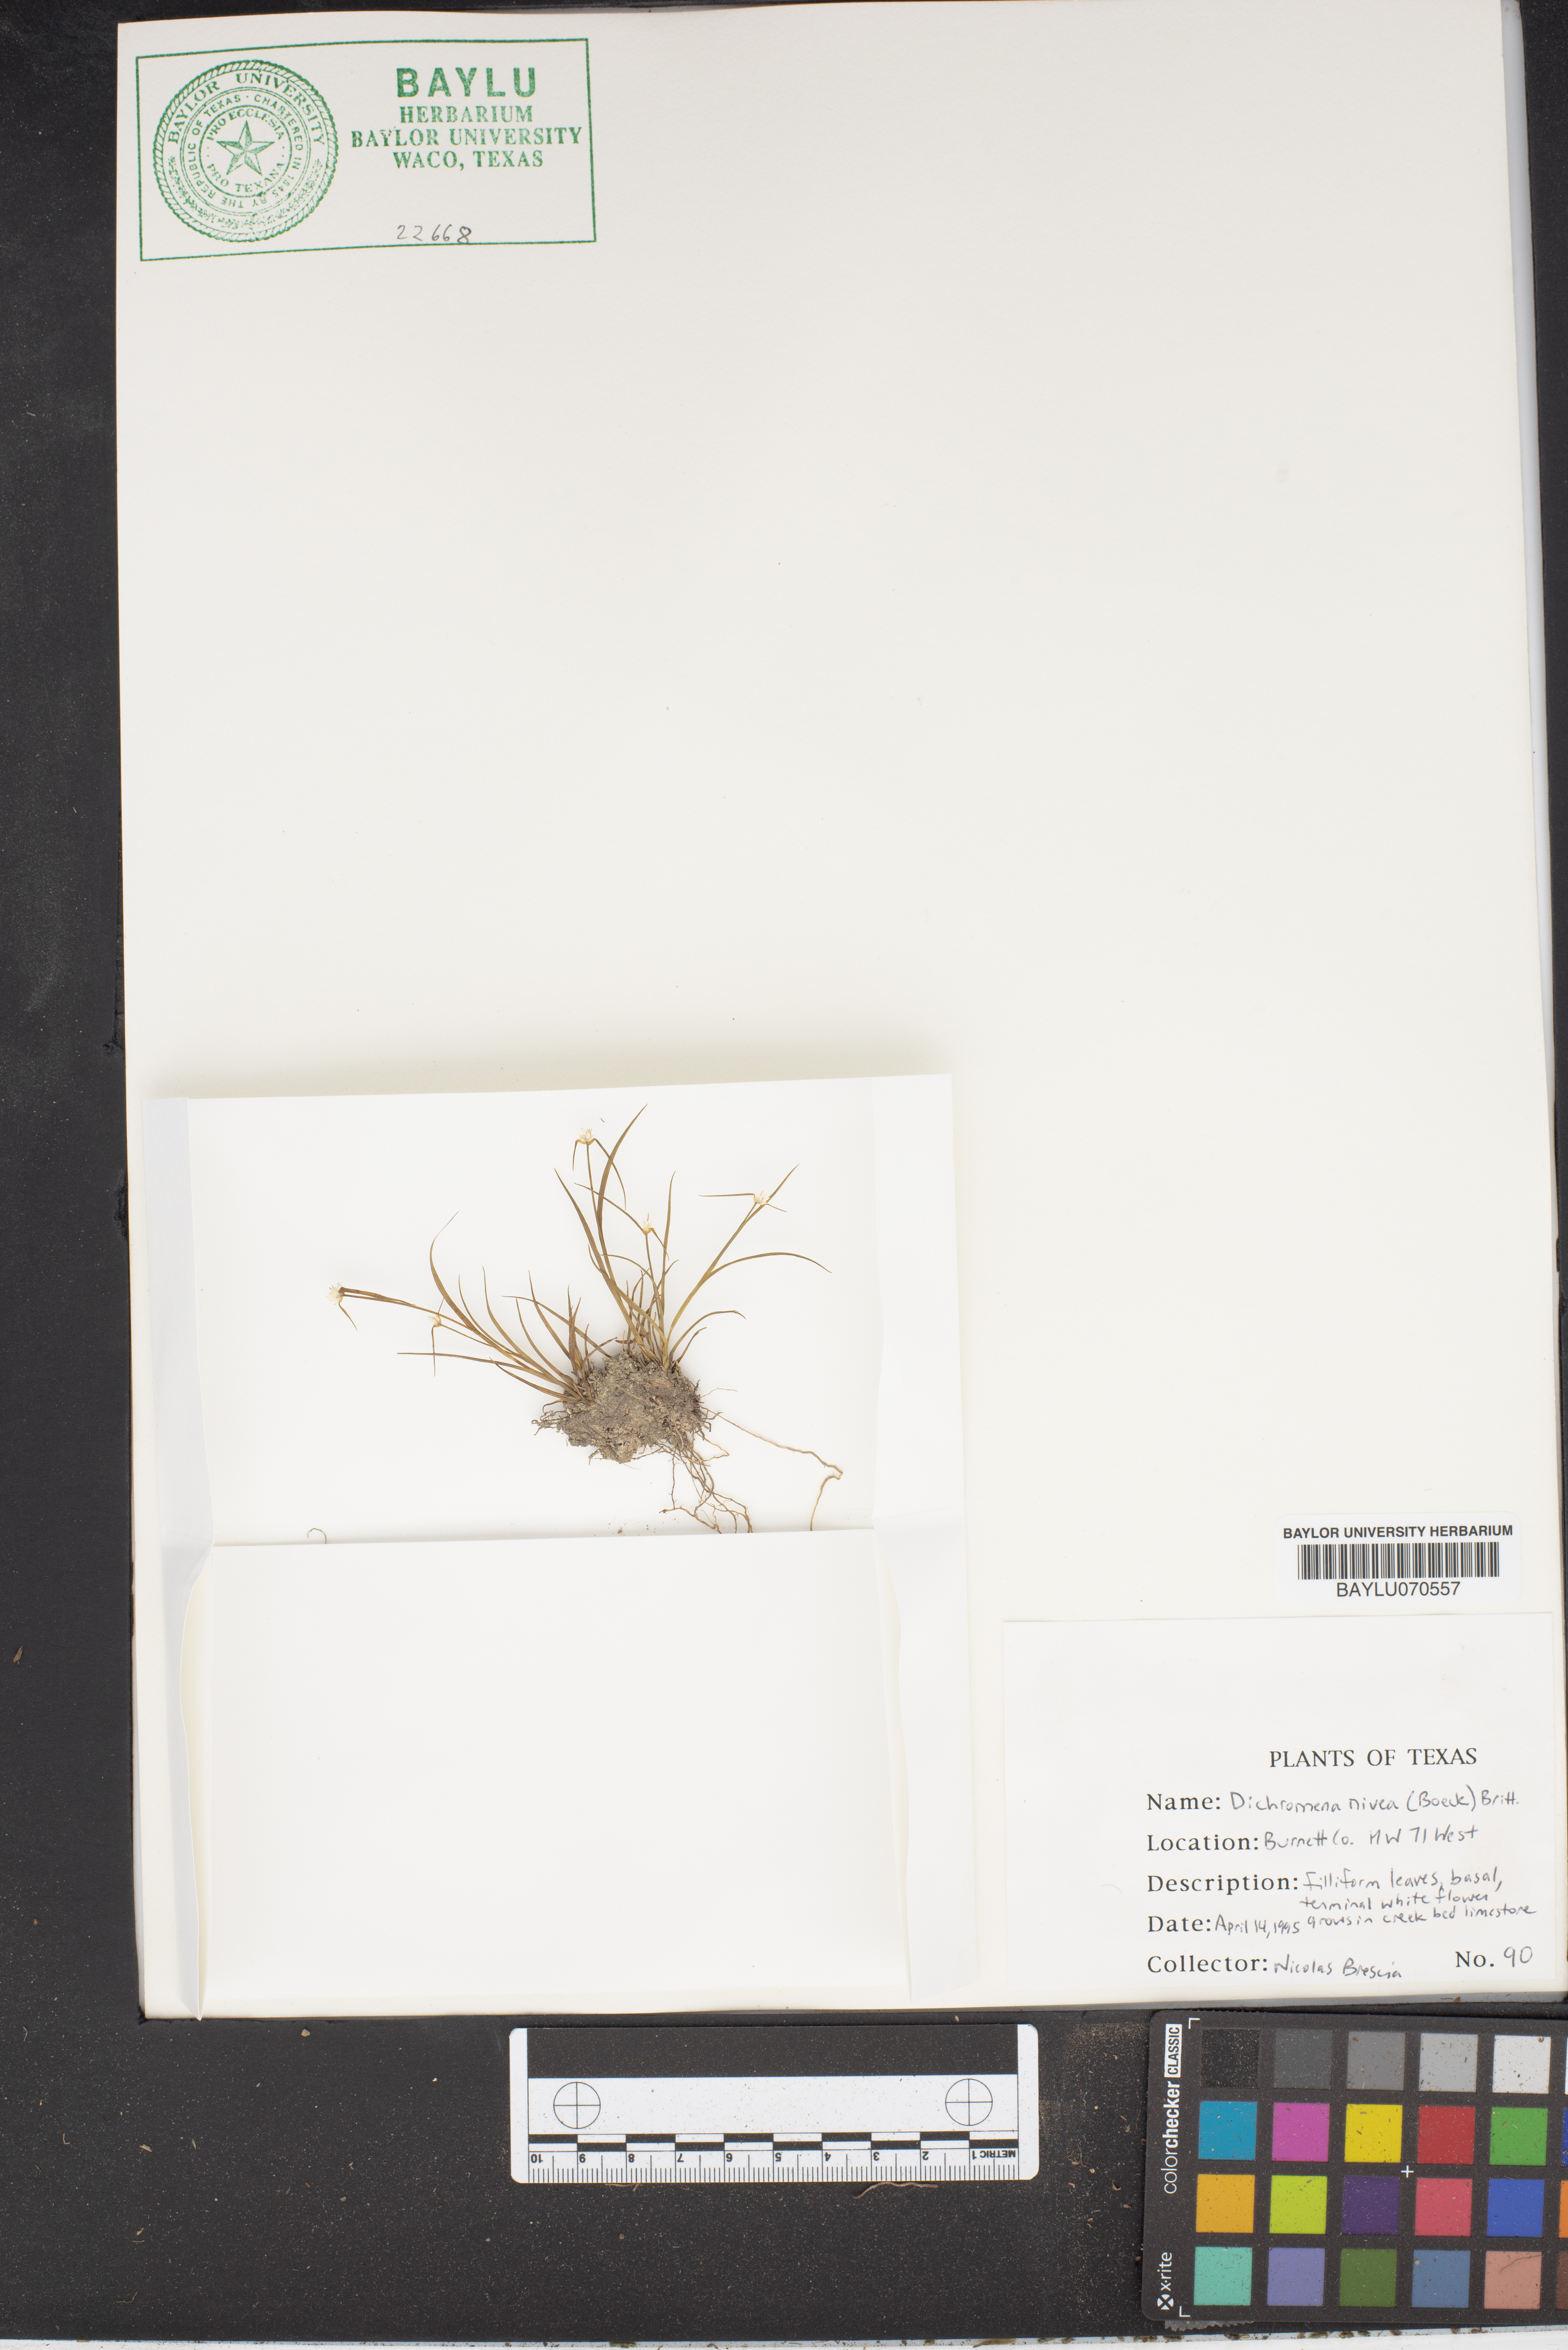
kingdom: Plantae
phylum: Tracheophyta
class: Liliopsida
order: Poales
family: Cyperaceae
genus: Rhynchospora
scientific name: Rhynchospora nivea
